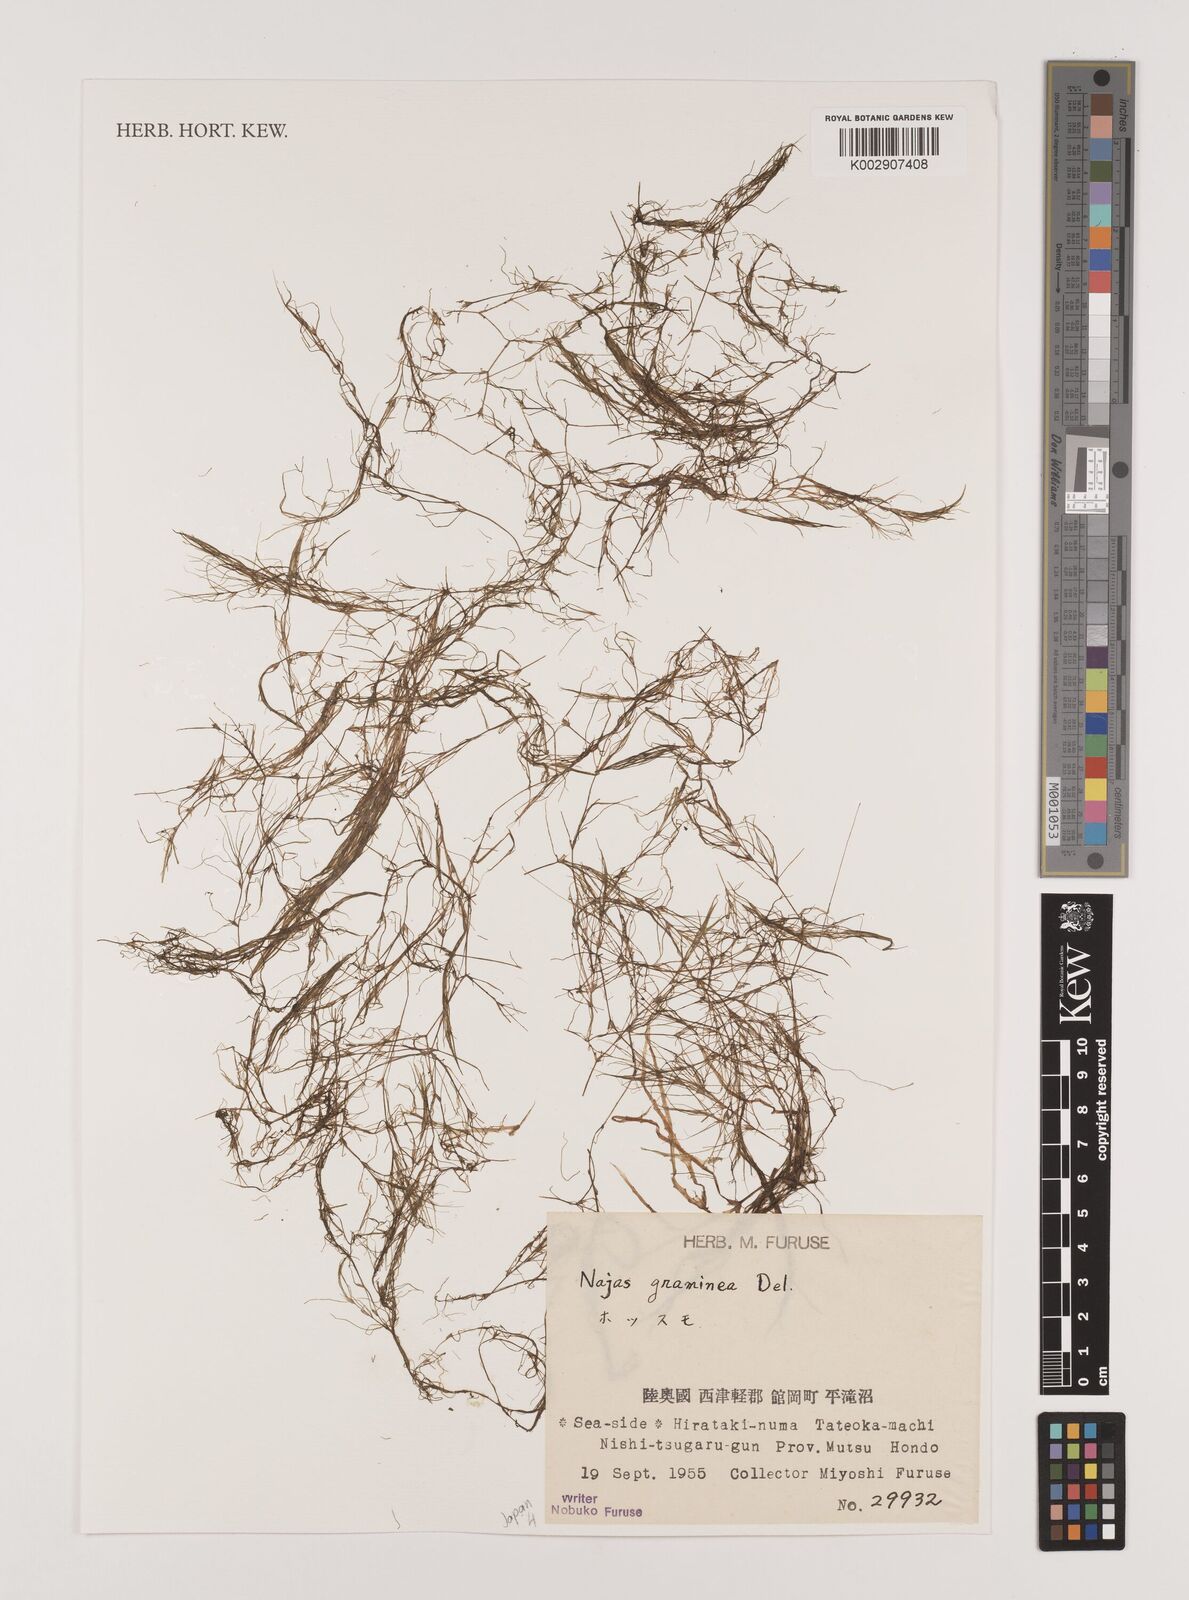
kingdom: Plantae
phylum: Tracheophyta
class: Liliopsida
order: Alismatales
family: Hydrocharitaceae
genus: Najas
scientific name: Najas graminea
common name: Ricefield waternymph
